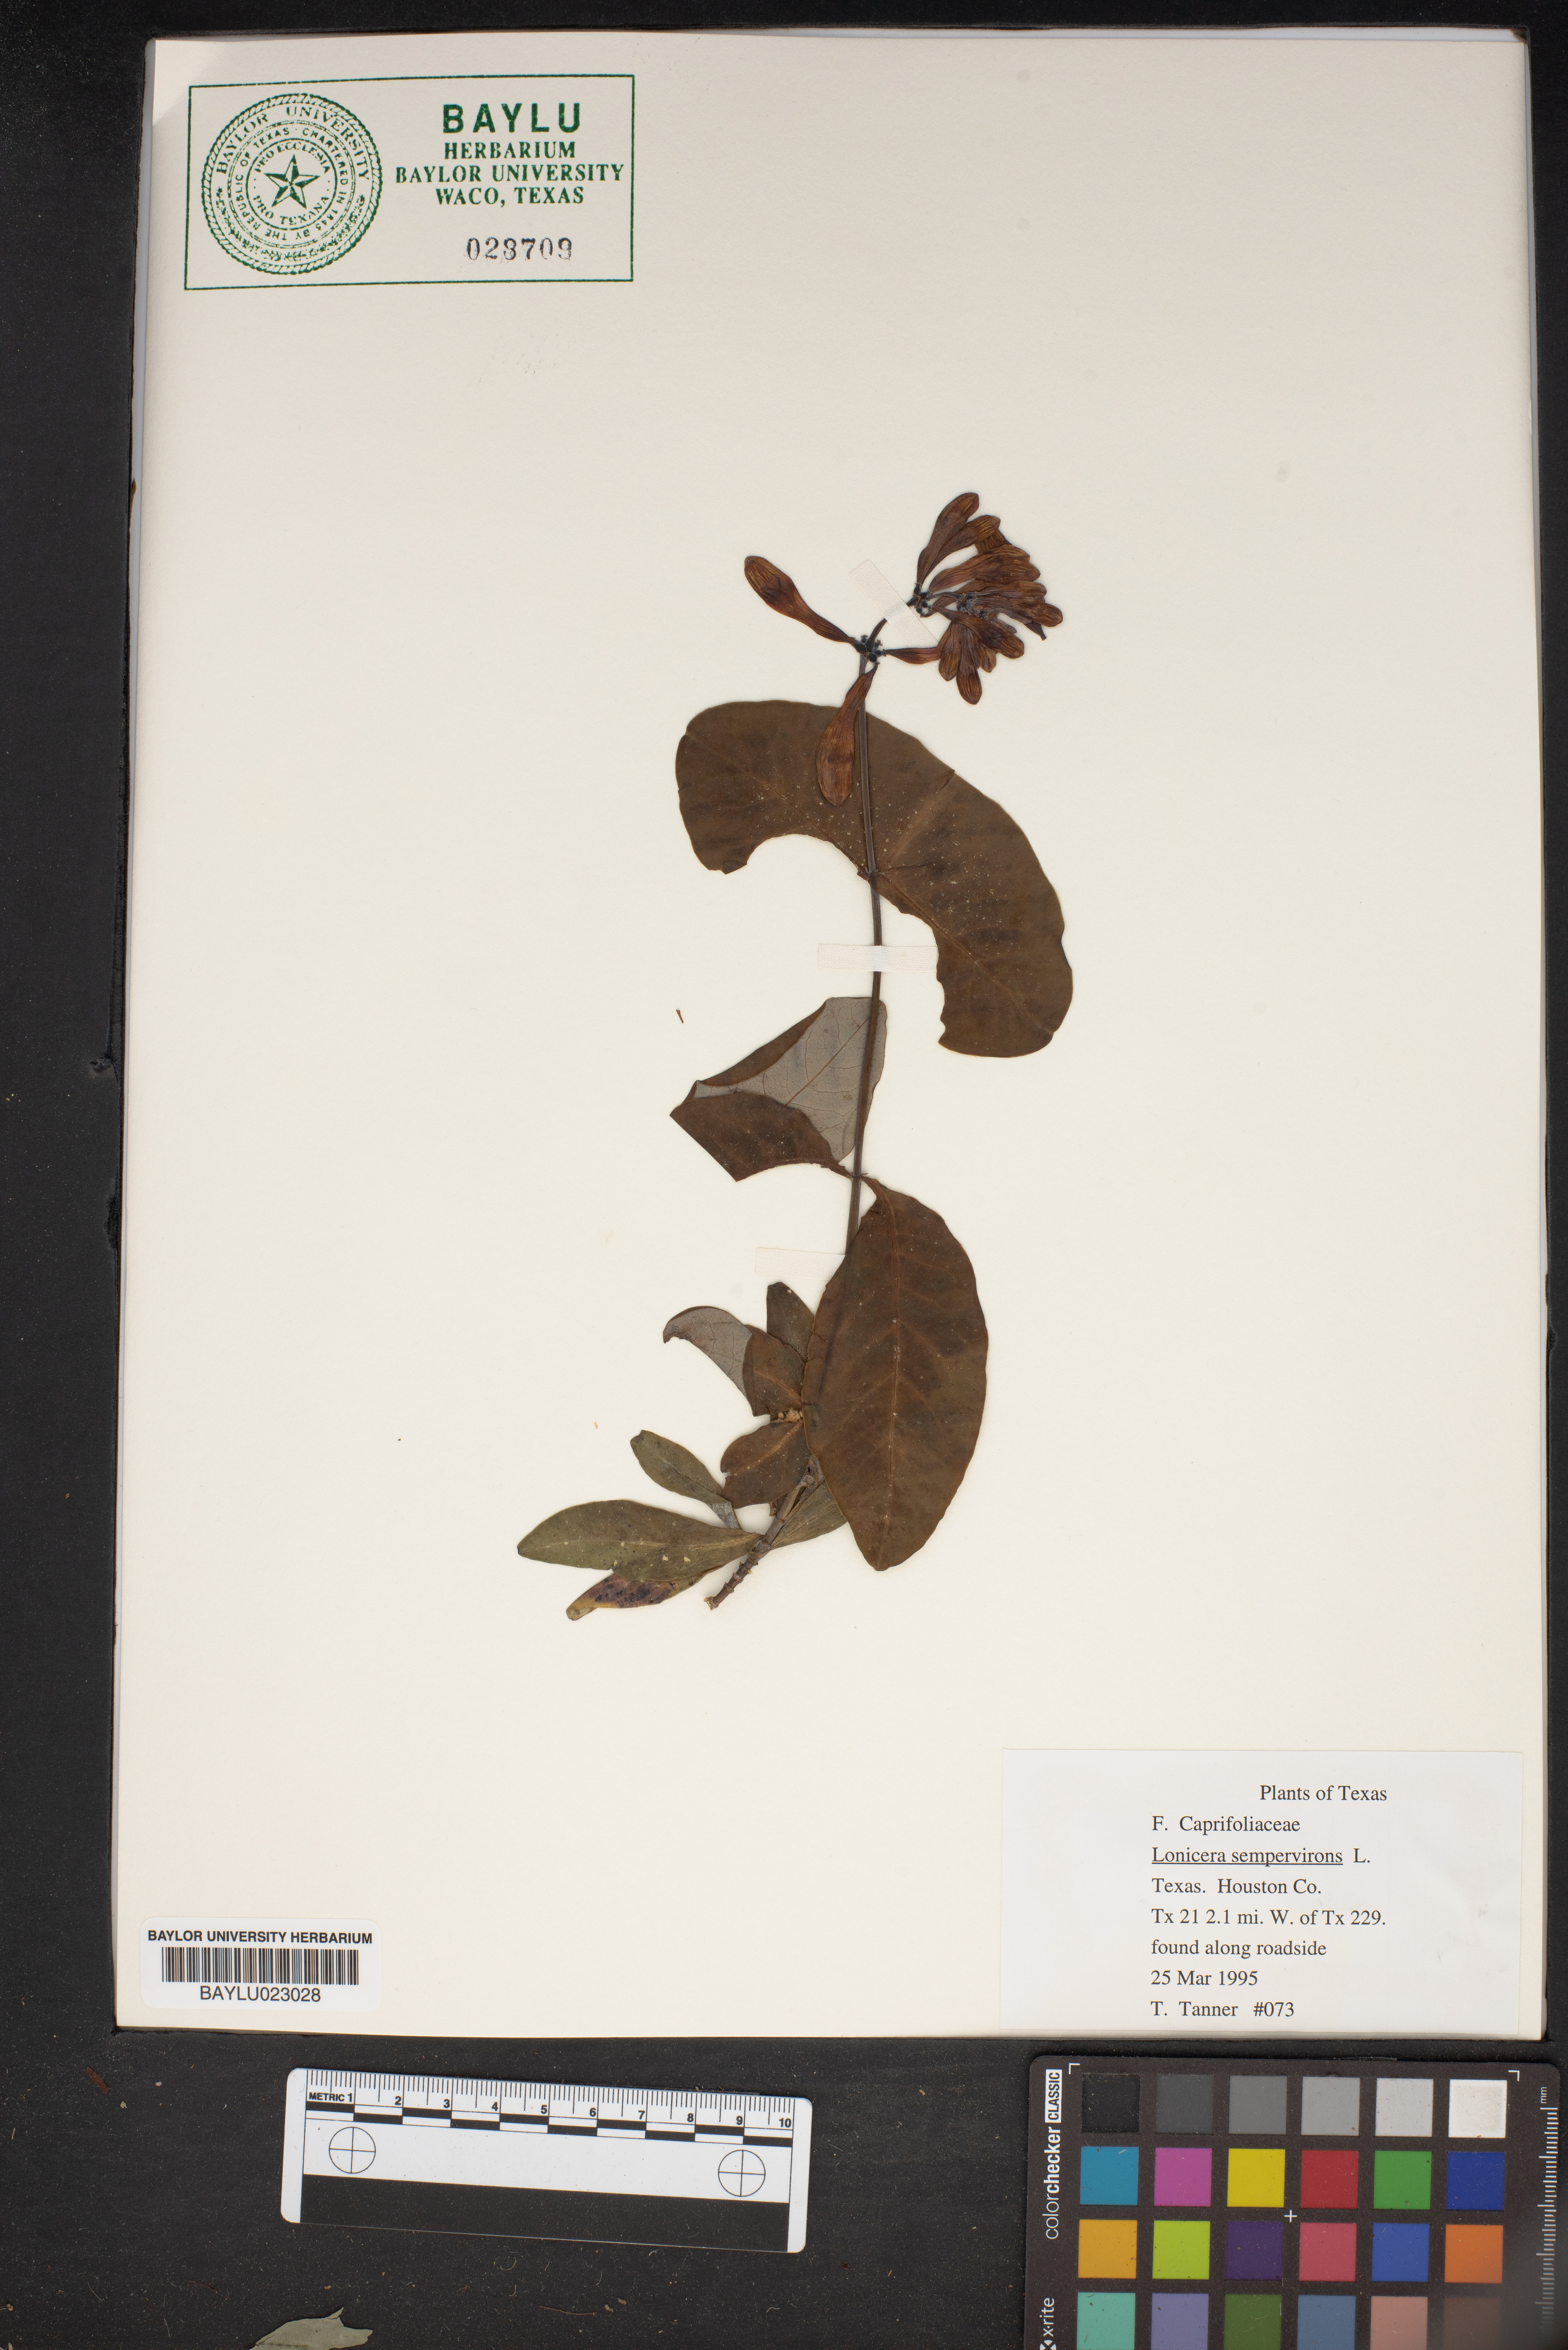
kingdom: Plantae
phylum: Tracheophyta
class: Magnoliopsida
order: Dipsacales
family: Caprifoliaceae
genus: Lonicera
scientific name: Lonicera sempervirens
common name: Coral honeysuckle
